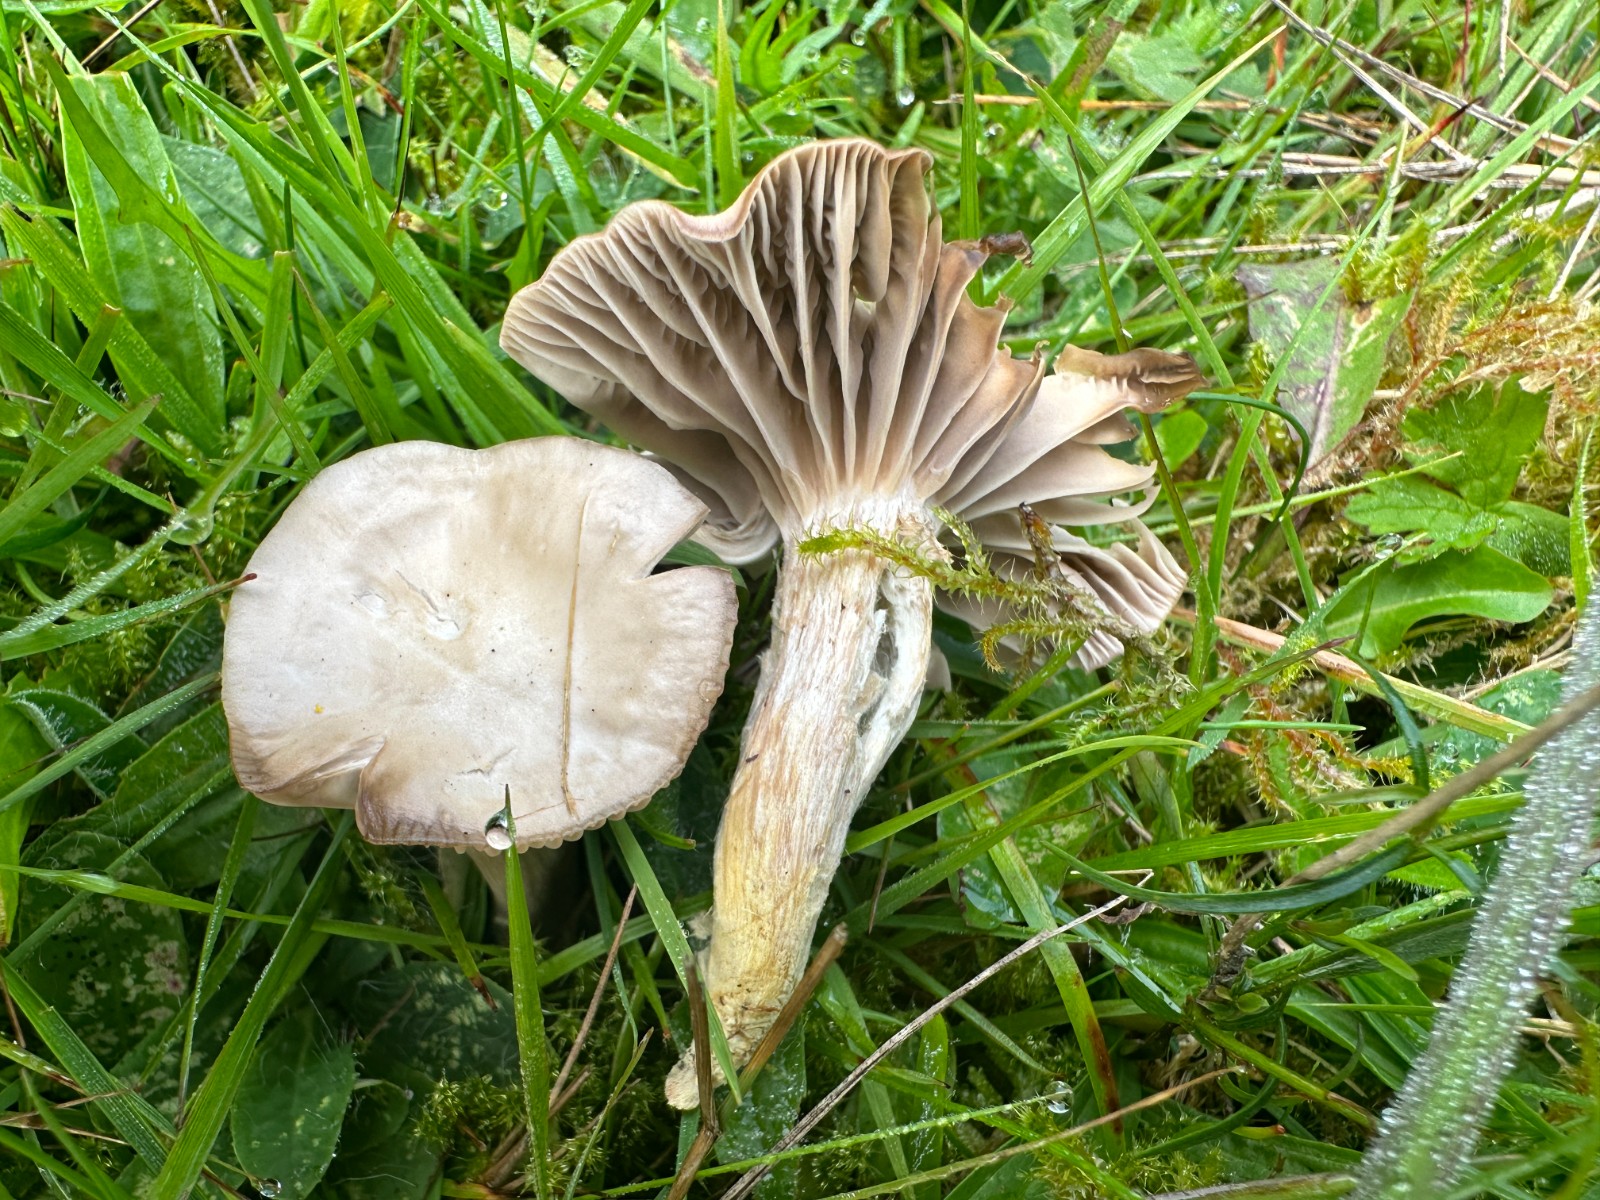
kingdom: Fungi
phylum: Basidiomycota
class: Agaricomycetes
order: Agaricales
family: Hygrophoraceae
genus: Cuphophyllus
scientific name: Cuphophyllus flavipes
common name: gulfodet vokshat
